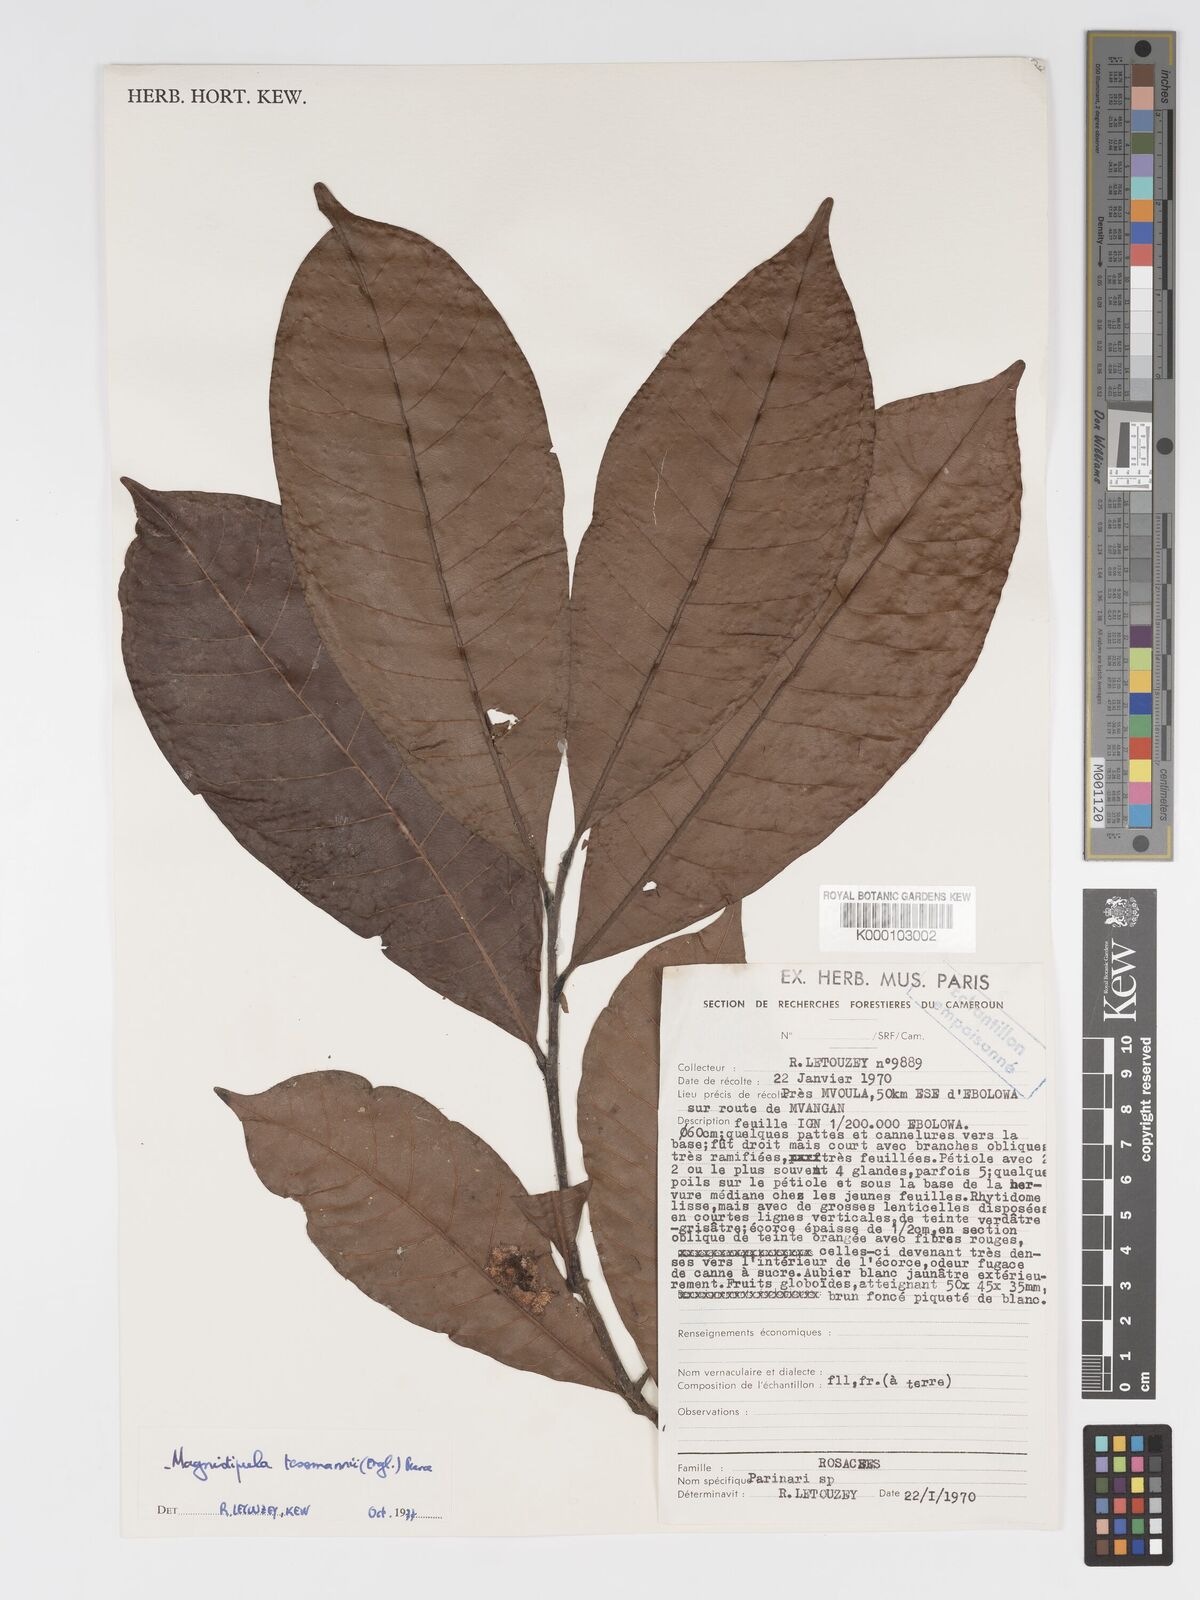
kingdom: Plantae
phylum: Tracheophyta
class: Magnoliopsida
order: Malpighiales
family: Chrysobalanaceae
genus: Magnistipula
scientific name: Magnistipula tessmannii
